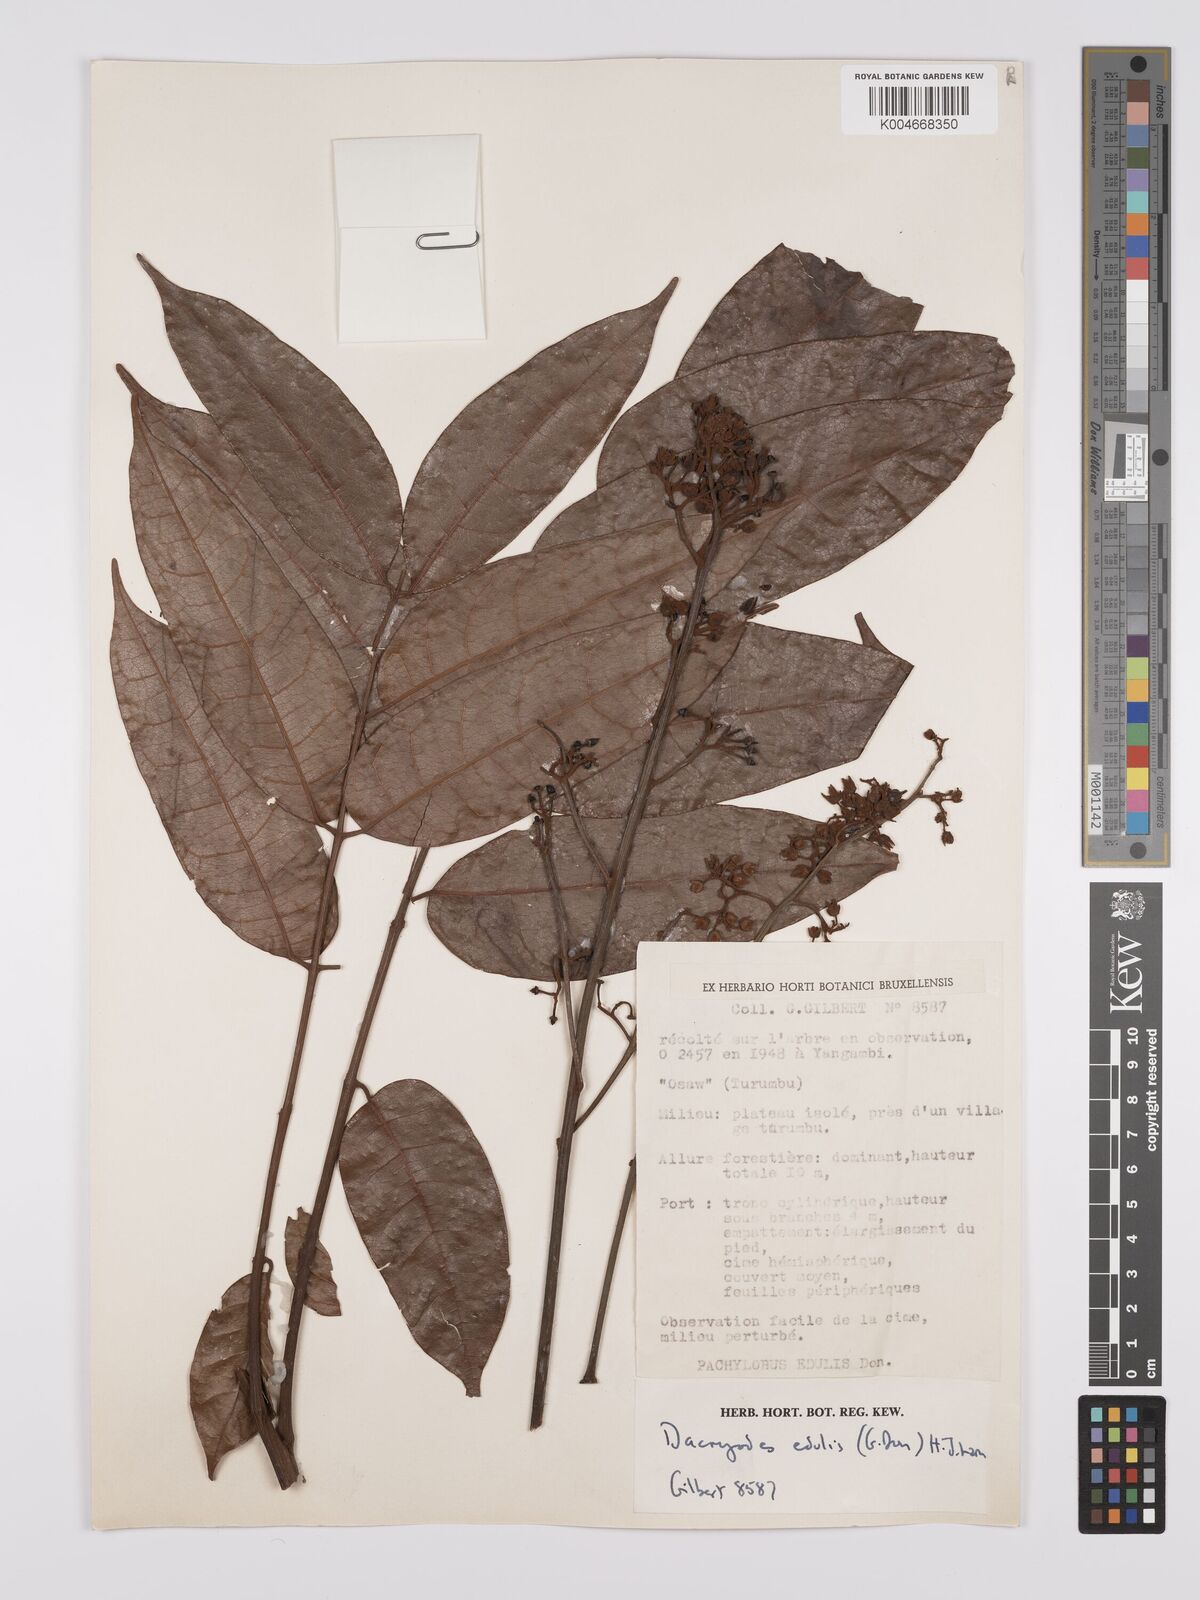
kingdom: Plantae
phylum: Tracheophyta
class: Magnoliopsida
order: Sapindales
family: Burseraceae
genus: Pachylobus
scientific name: Pachylobus edulis
